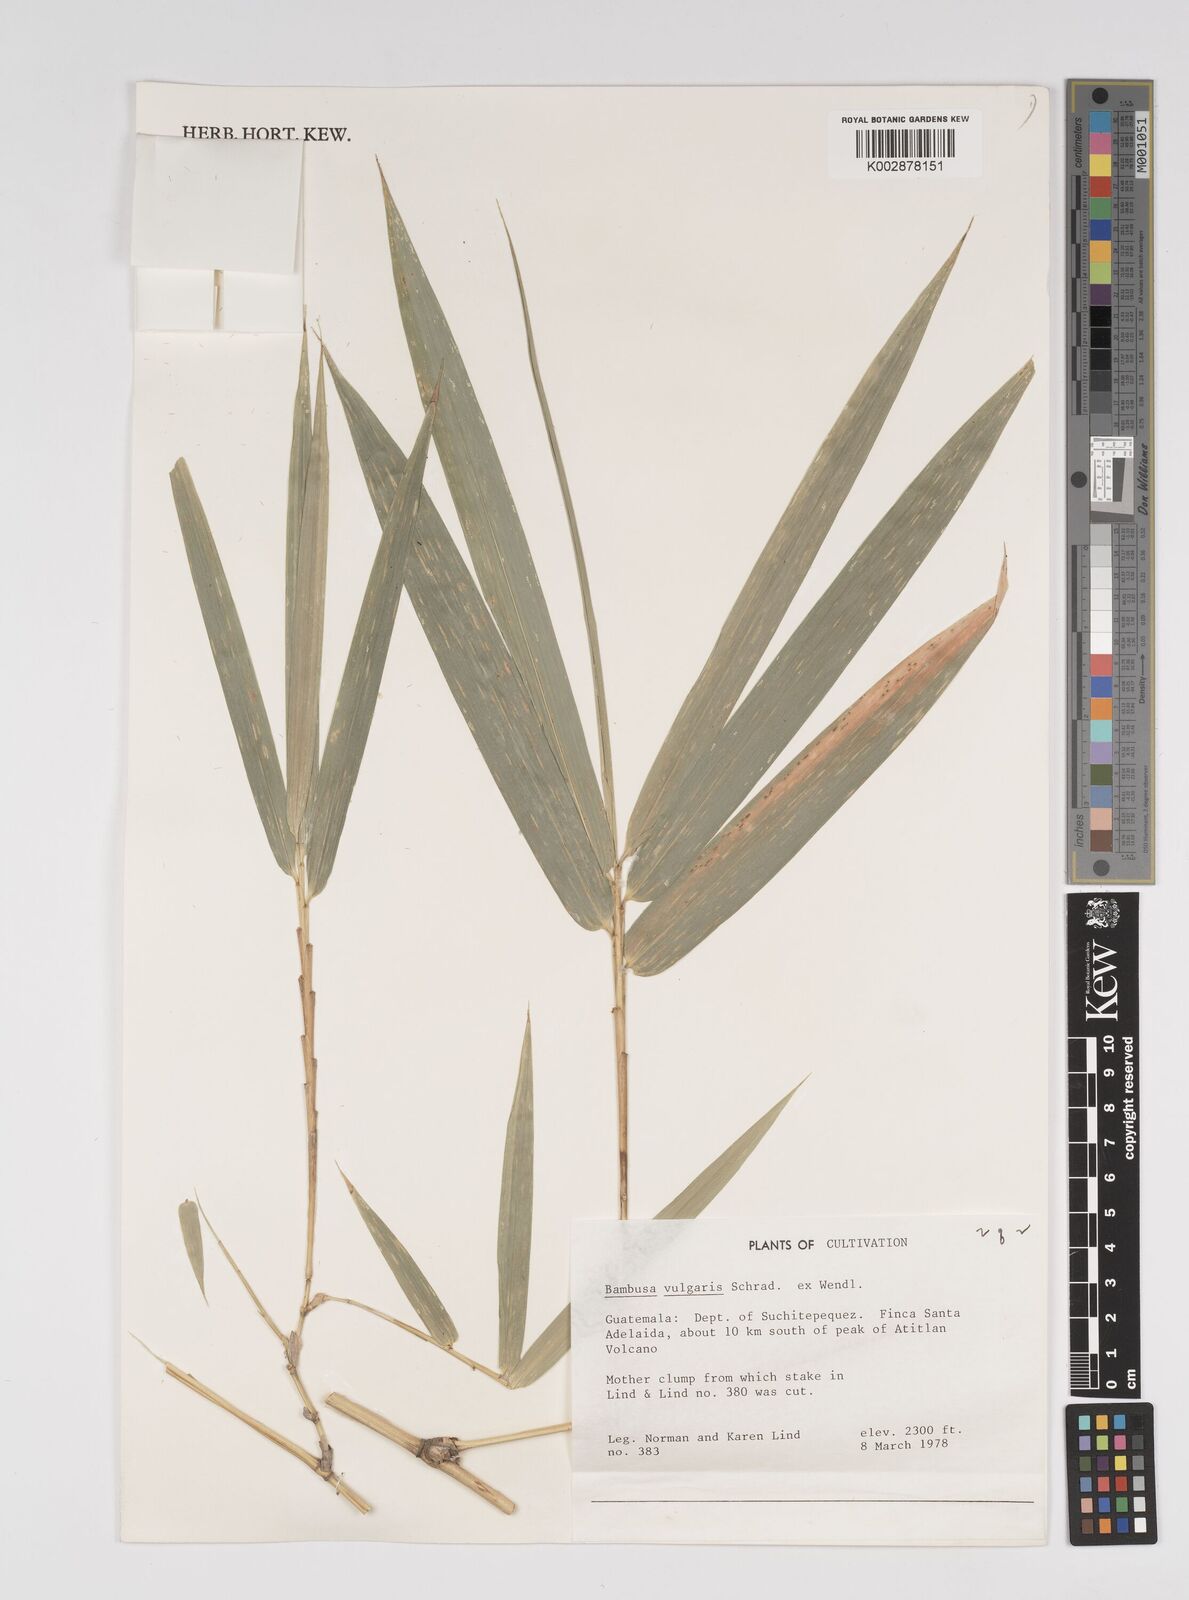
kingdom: Plantae
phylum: Tracheophyta
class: Liliopsida
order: Poales
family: Poaceae
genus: Bambusa
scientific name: Bambusa
